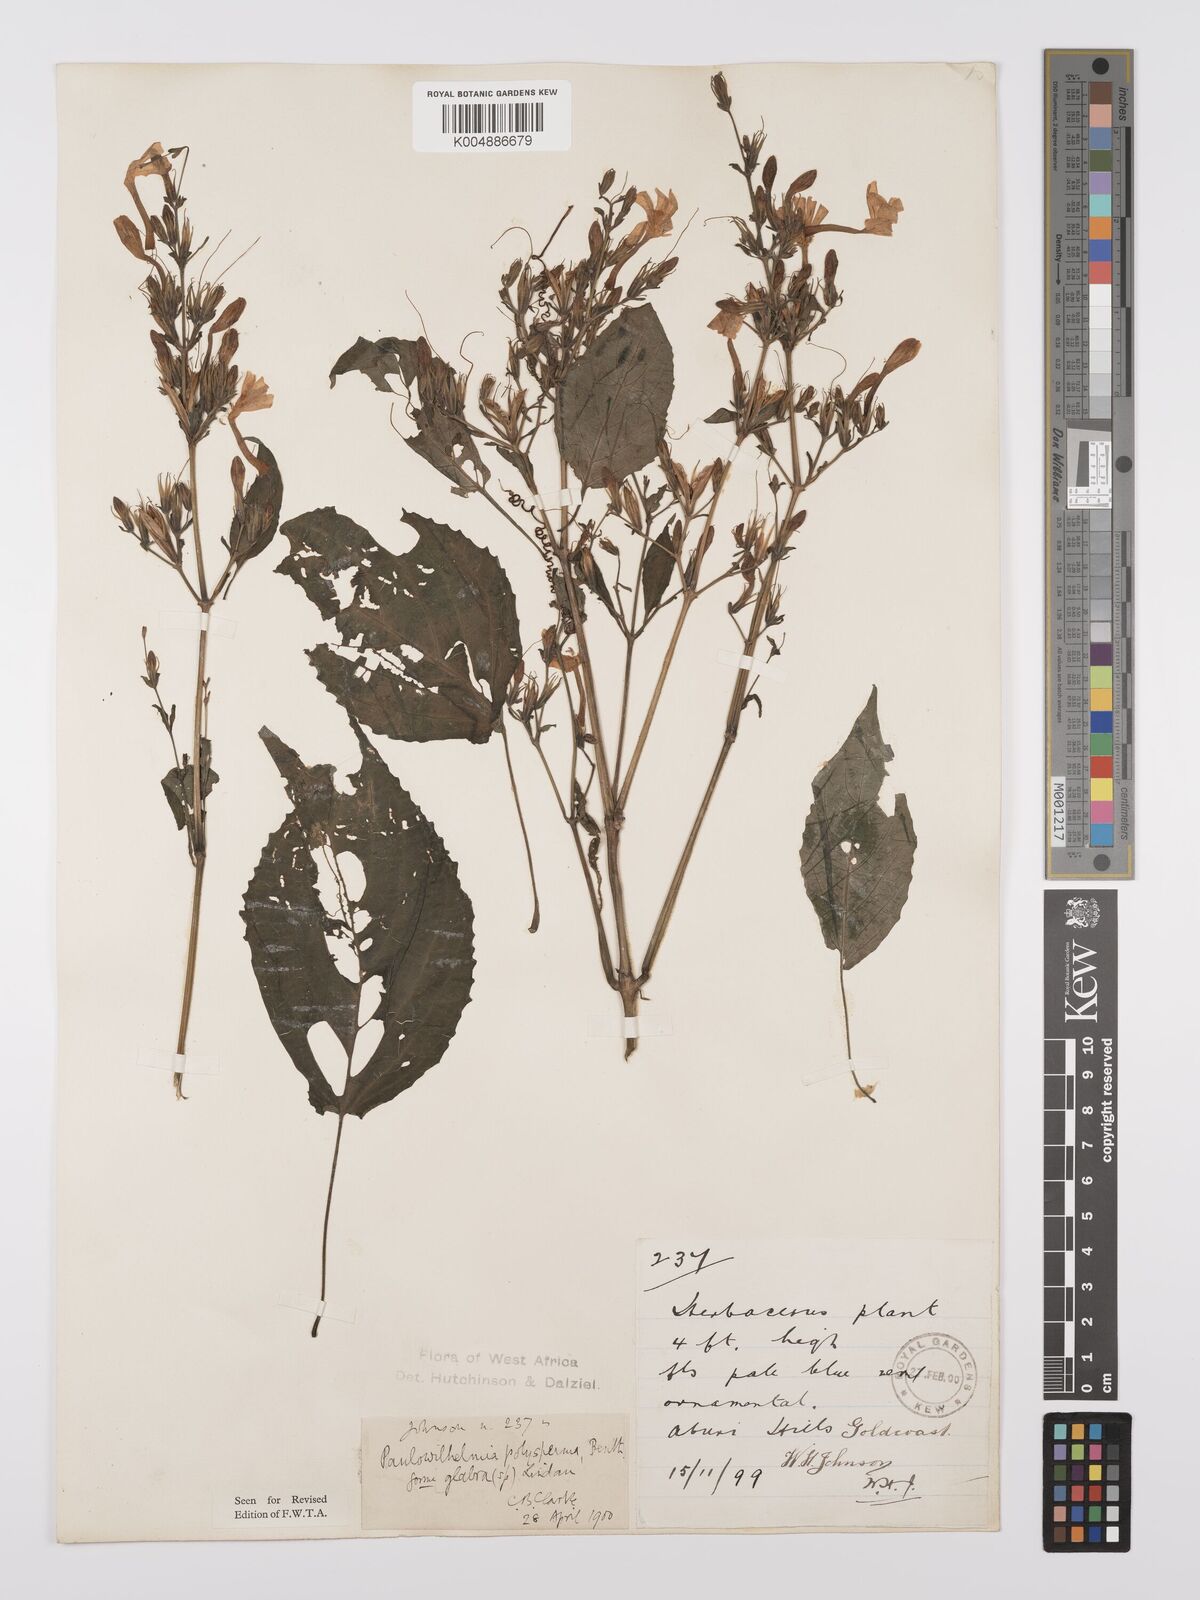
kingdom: Plantae
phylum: Tracheophyta
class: Magnoliopsida
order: Lamiales
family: Acanthaceae
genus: Eremomastax
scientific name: Eremomastax speciosa
